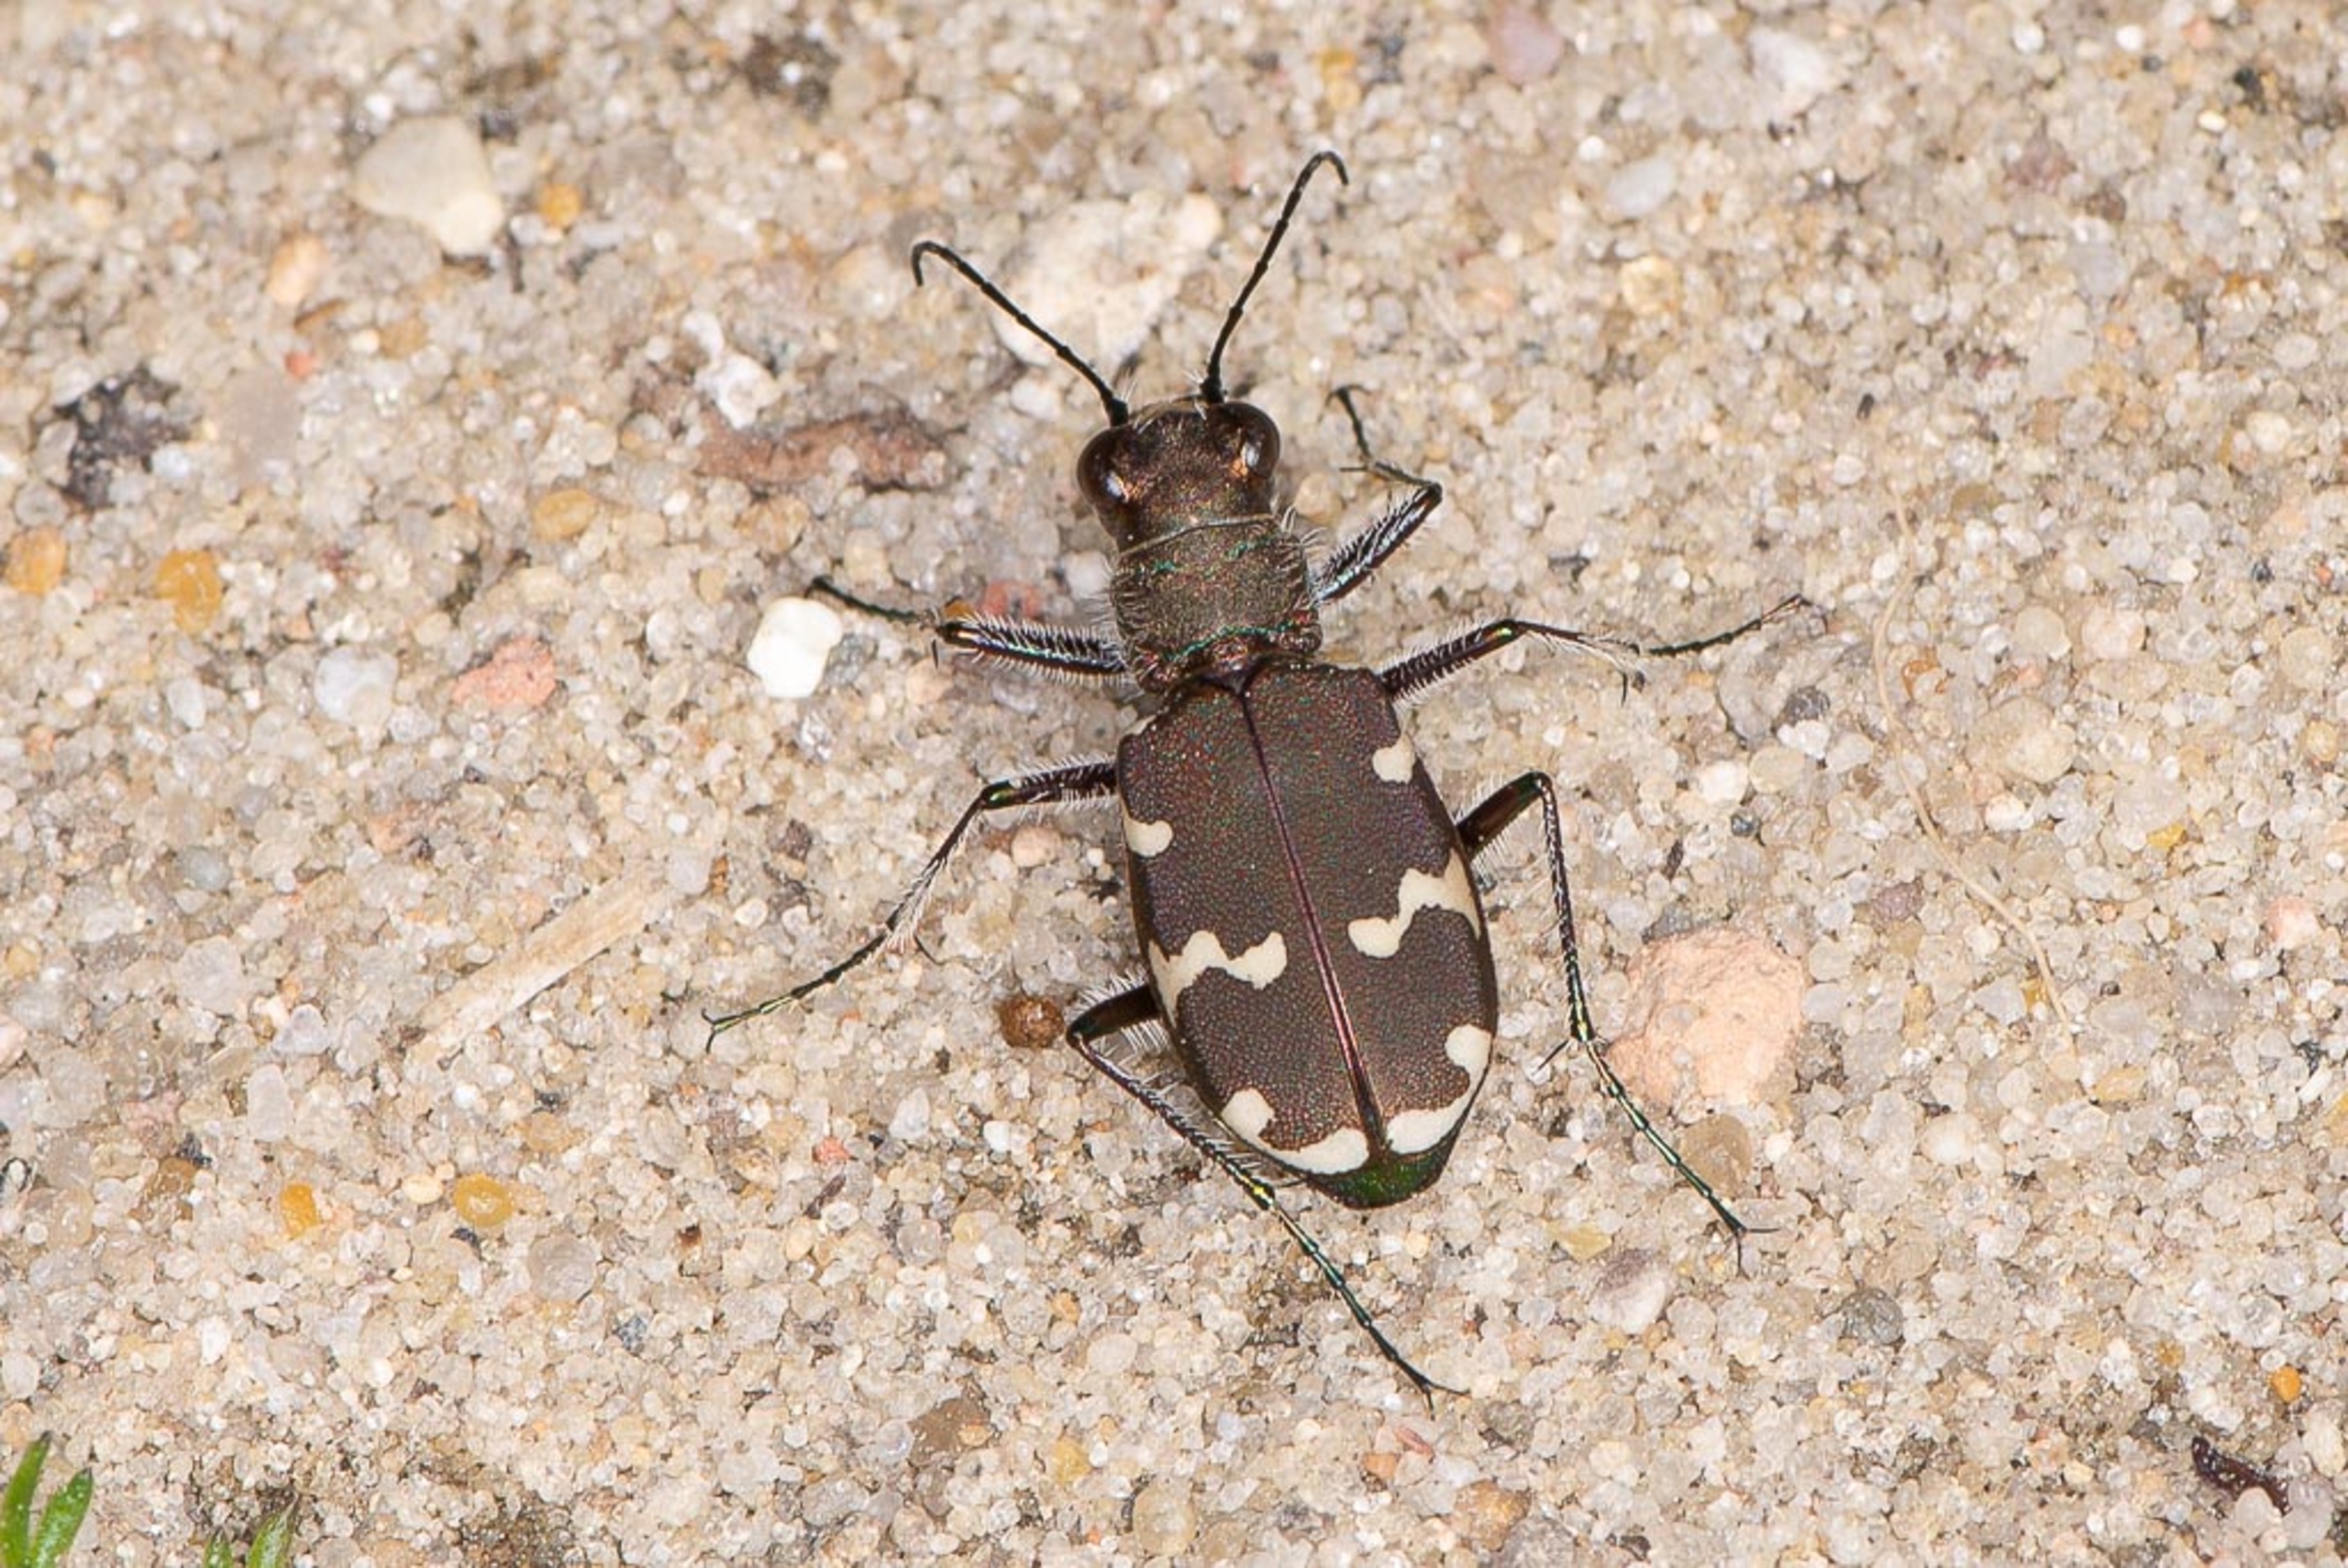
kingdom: Animalia
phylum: Arthropoda
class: Insecta
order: Coleoptera
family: Carabidae
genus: Cicindela
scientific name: Cicindela hybrida
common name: Brun sandspringer
